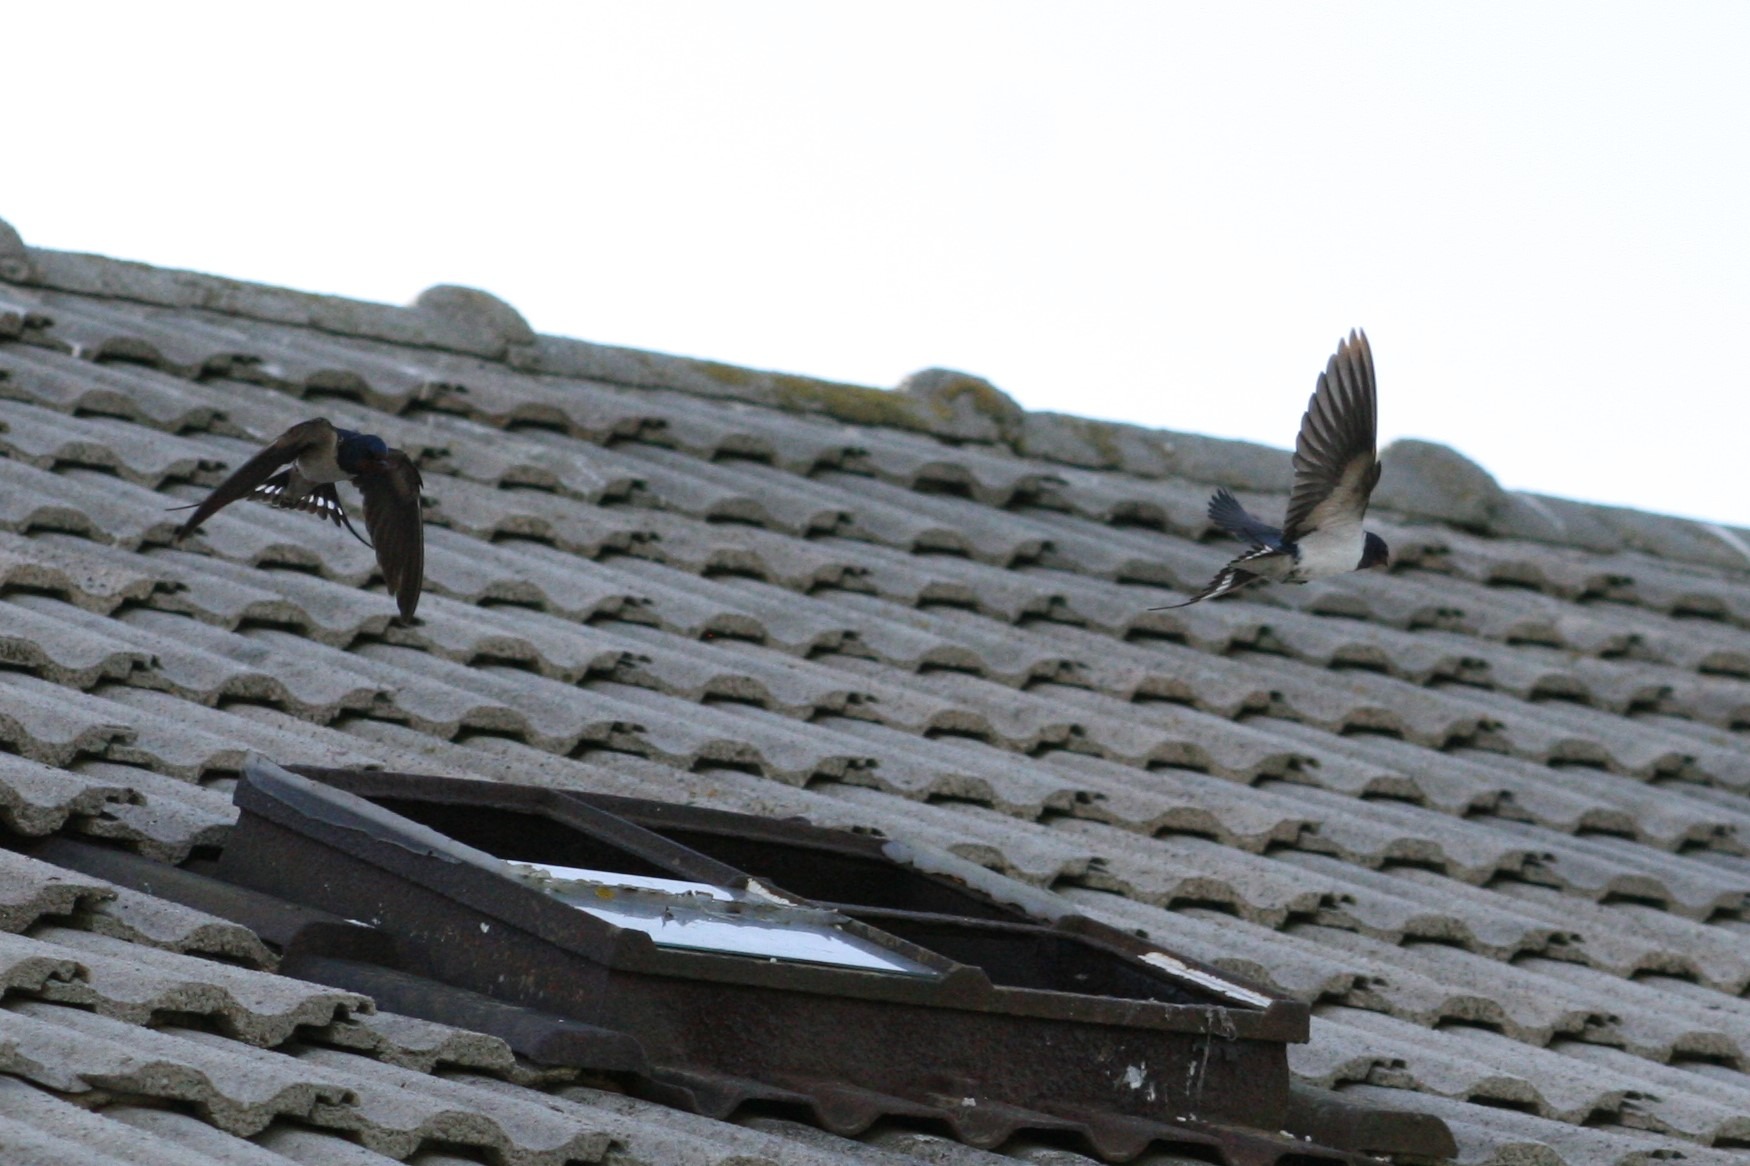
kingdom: Animalia
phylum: Chordata
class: Aves
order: Passeriformes
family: Hirundinidae
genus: Hirundo
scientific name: Hirundo rustica
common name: Landsvale
